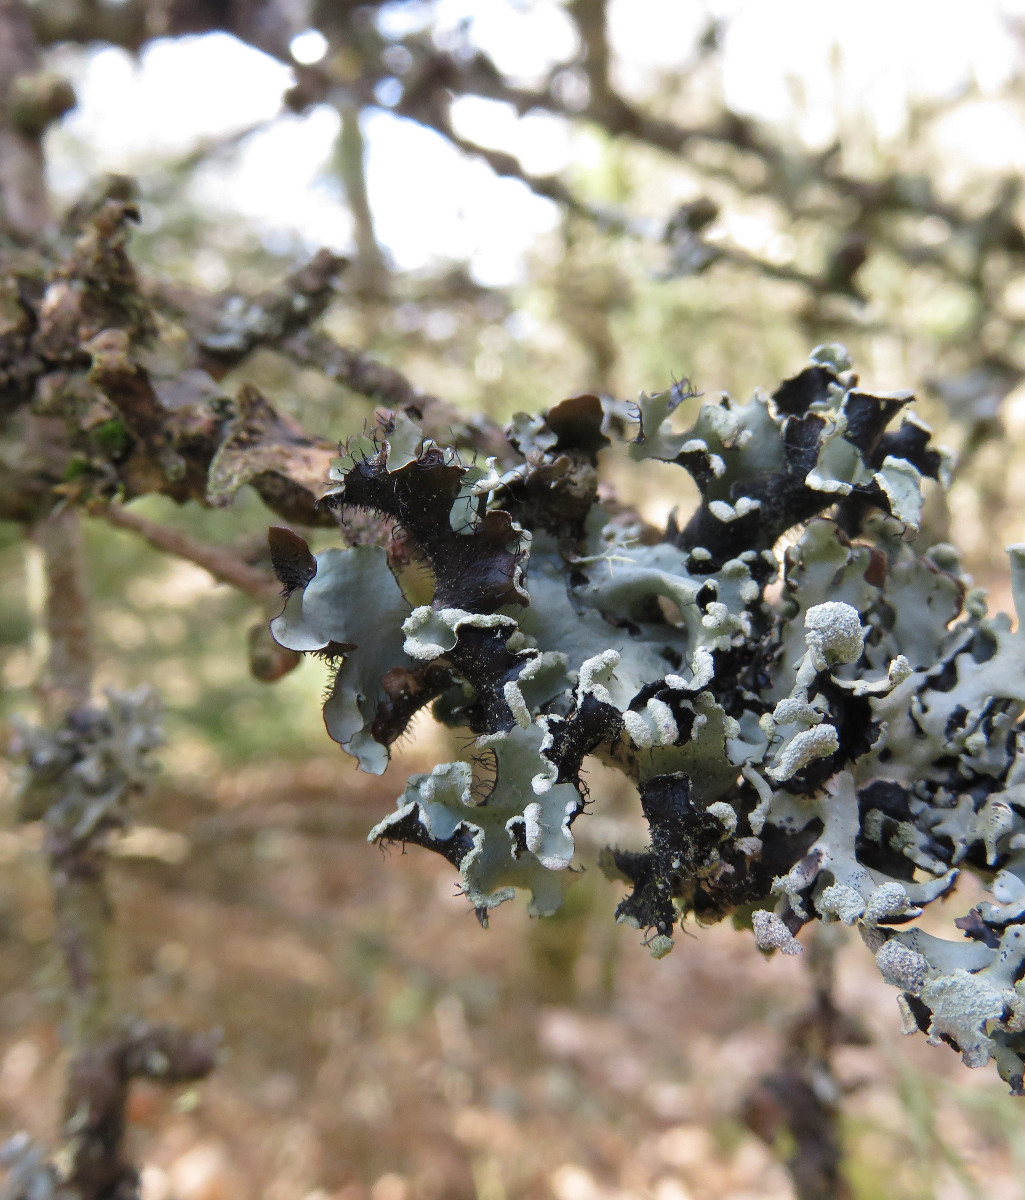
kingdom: Fungi
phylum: Ascomycota
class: Lecanoromycetes
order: Lecanorales
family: Parmeliaceae
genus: Parmotrema
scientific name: Parmotrema perlatum
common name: trådet skållav
